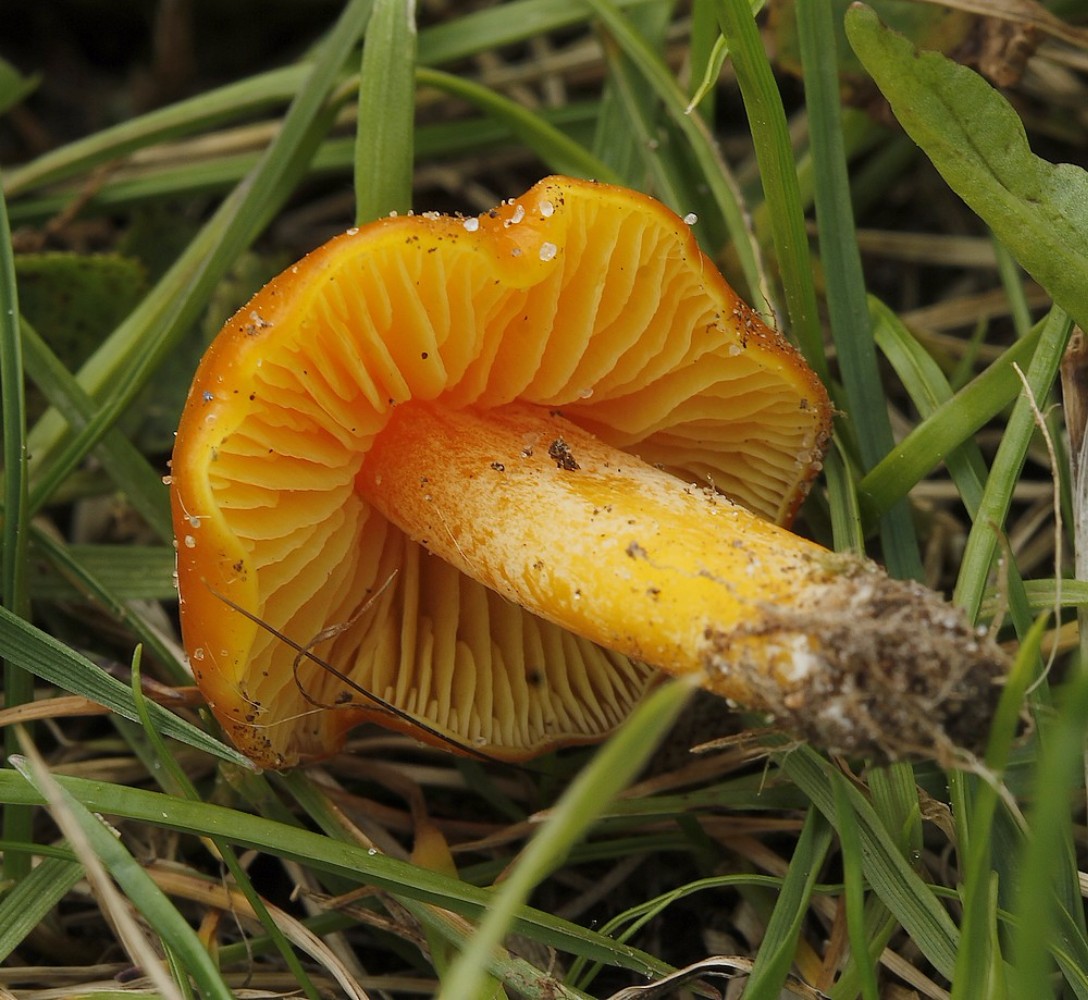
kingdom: Fungi
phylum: Basidiomycota
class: Agaricomycetes
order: Agaricales
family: Hygrophoraceae
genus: Hygrocybe
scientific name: Hygrocybe chlorophana
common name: gul vokshat
